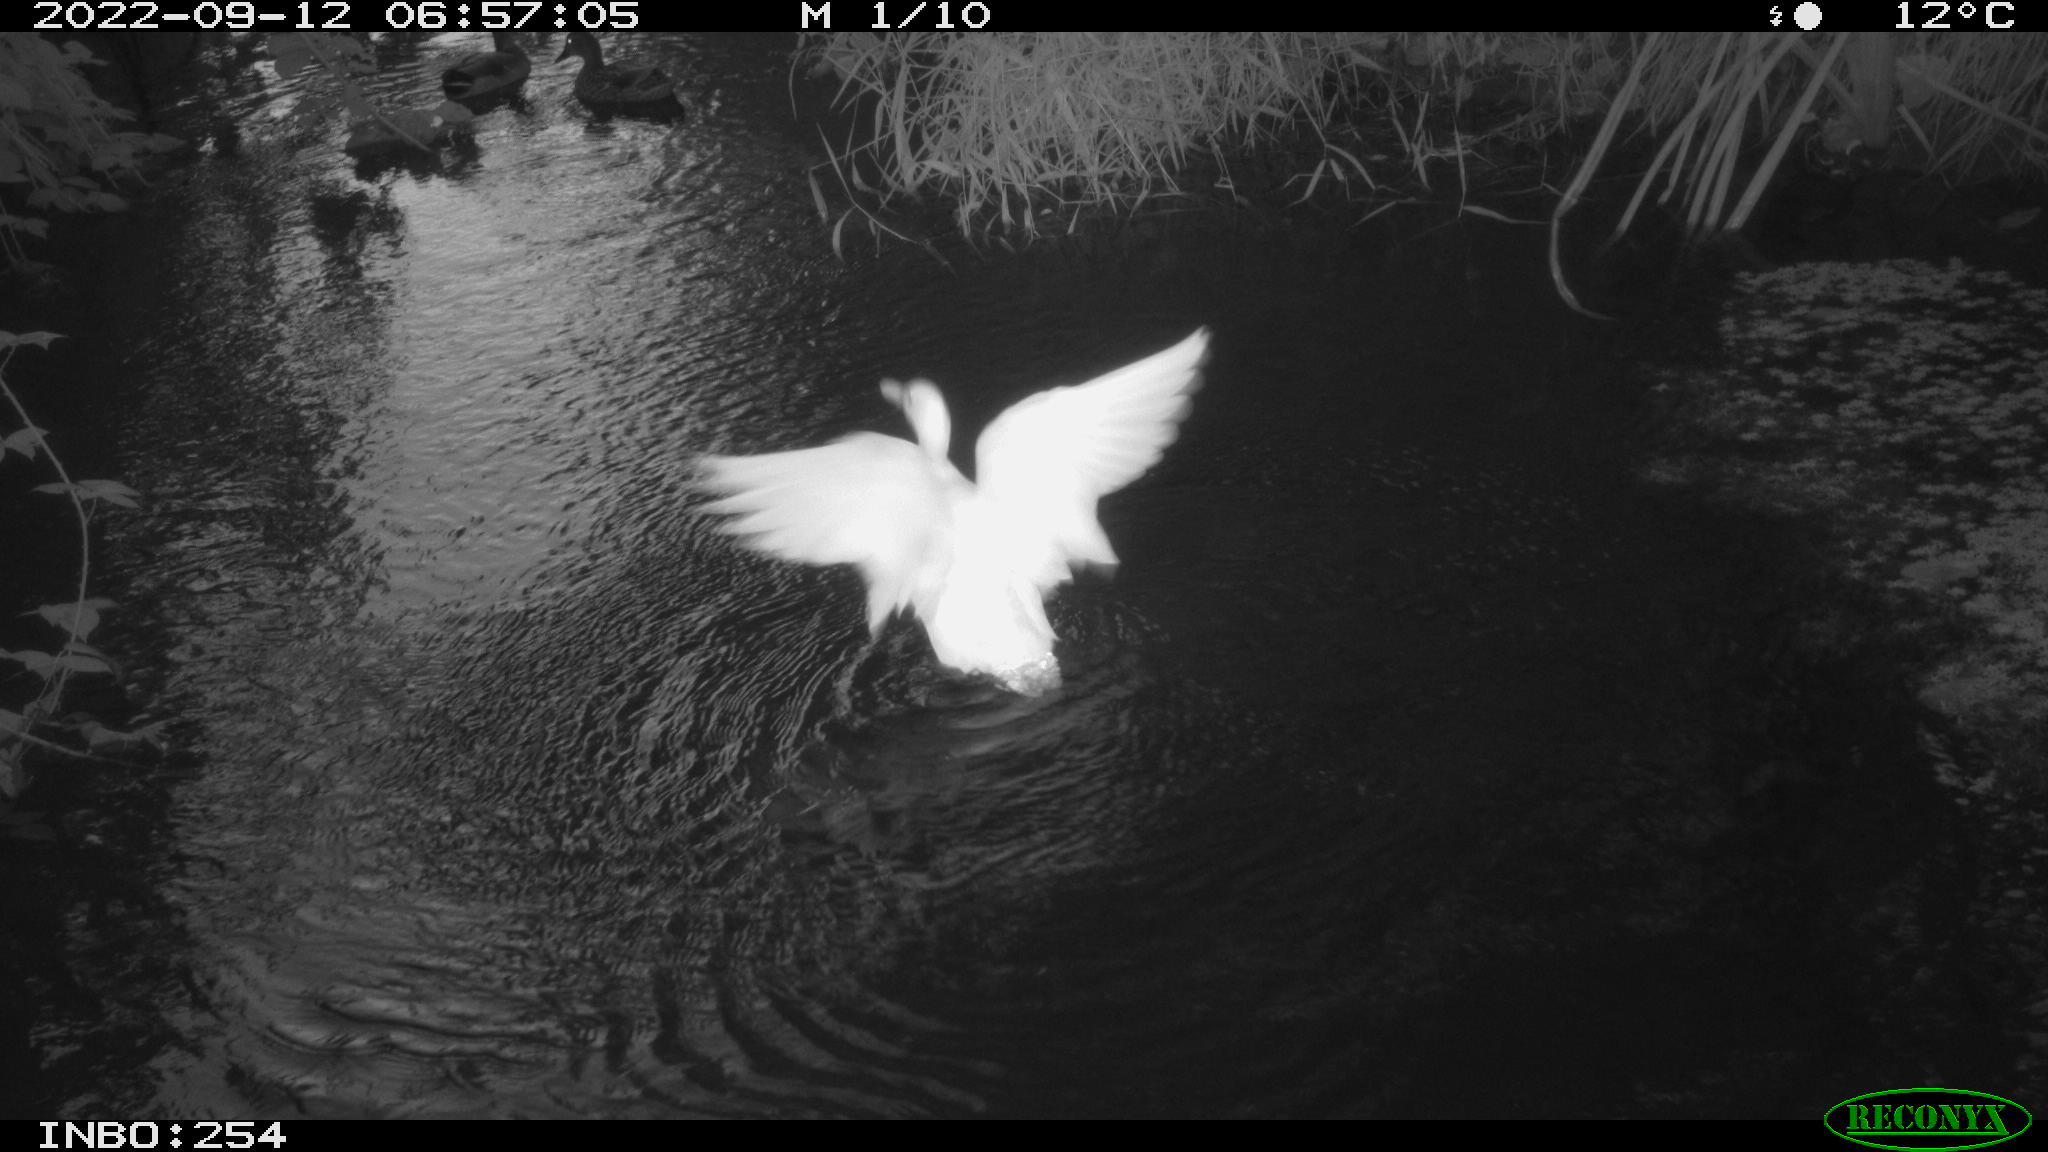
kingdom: Animalia
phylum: Chordata
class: Aves
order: Anseriformes
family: Anatidae
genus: Anas
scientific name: Anas
